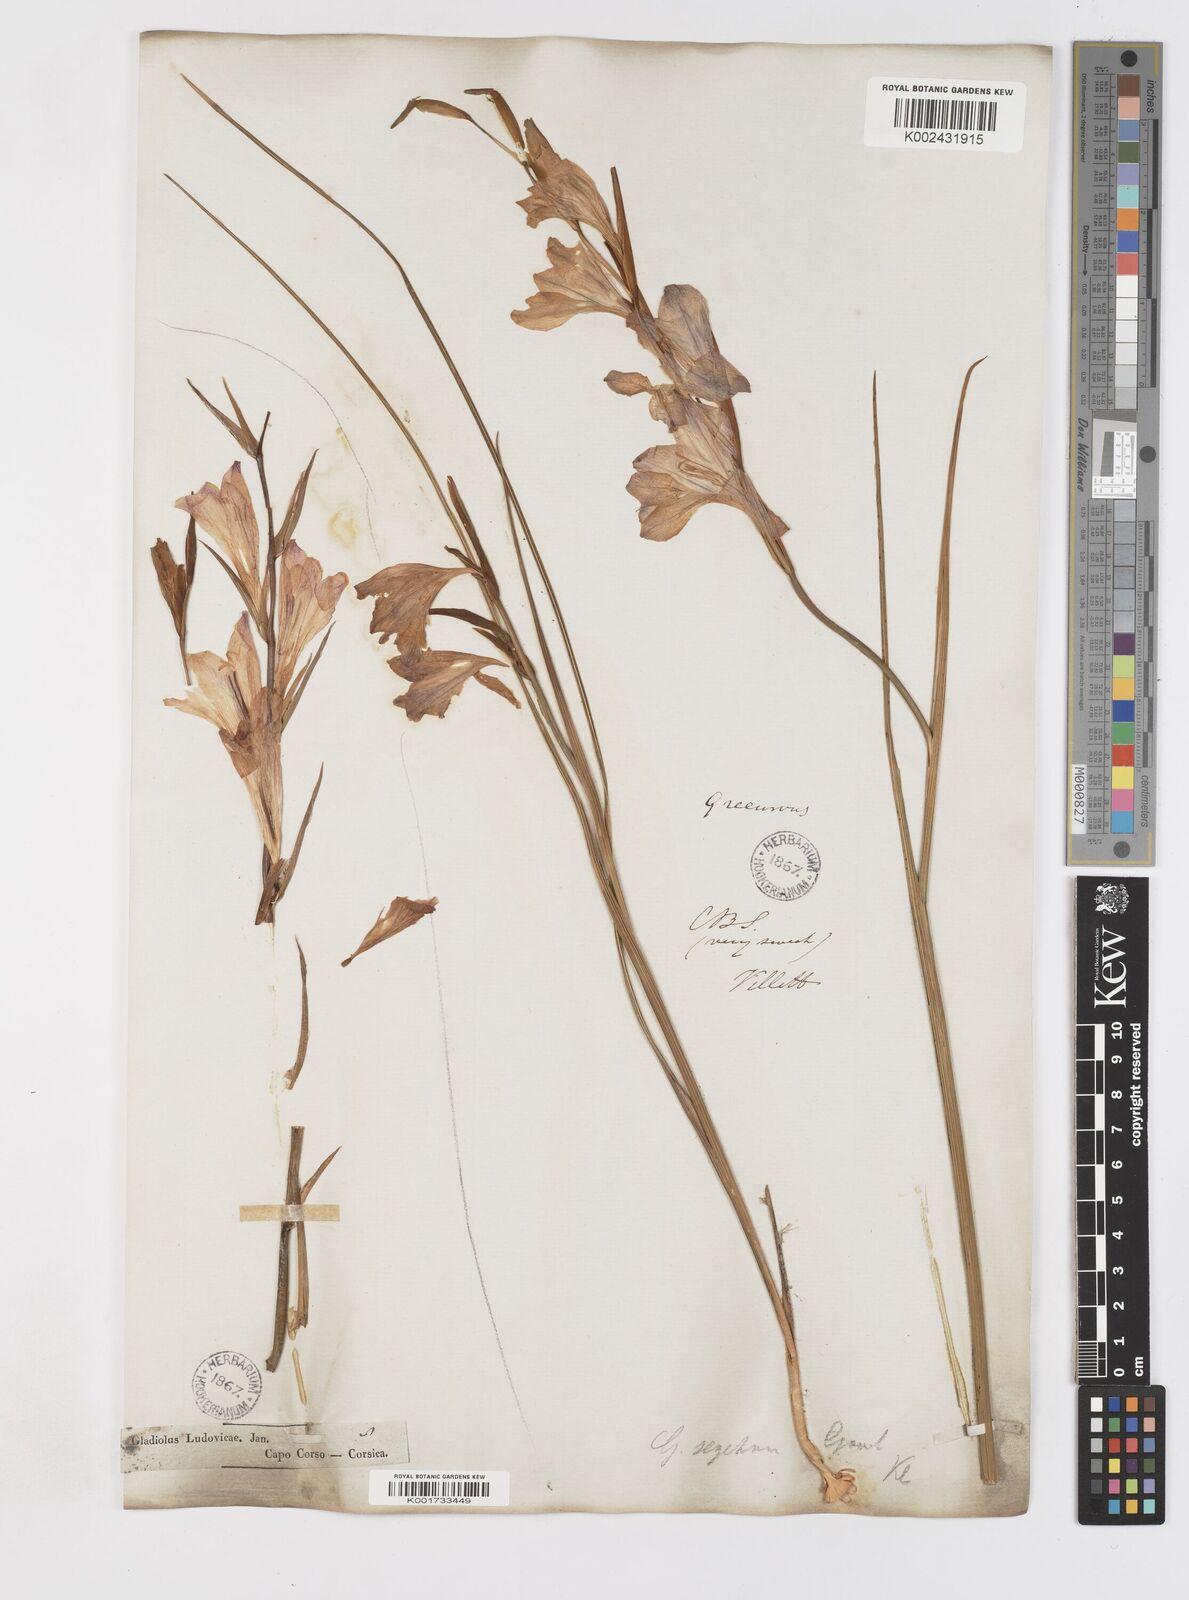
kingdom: Plantae
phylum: Tracheophyta
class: Liliopsida
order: Asparagales
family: Iridaceae
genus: Gladiolus
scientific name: Gladiolus italicus
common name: Field gladiolus
